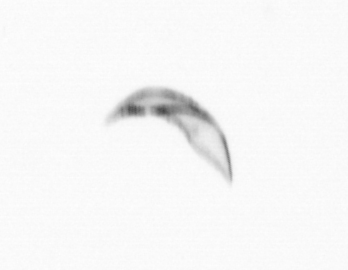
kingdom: Chromista
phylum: Ochrophyta
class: Bacillariophyceae
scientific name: Bacillariophyceae
